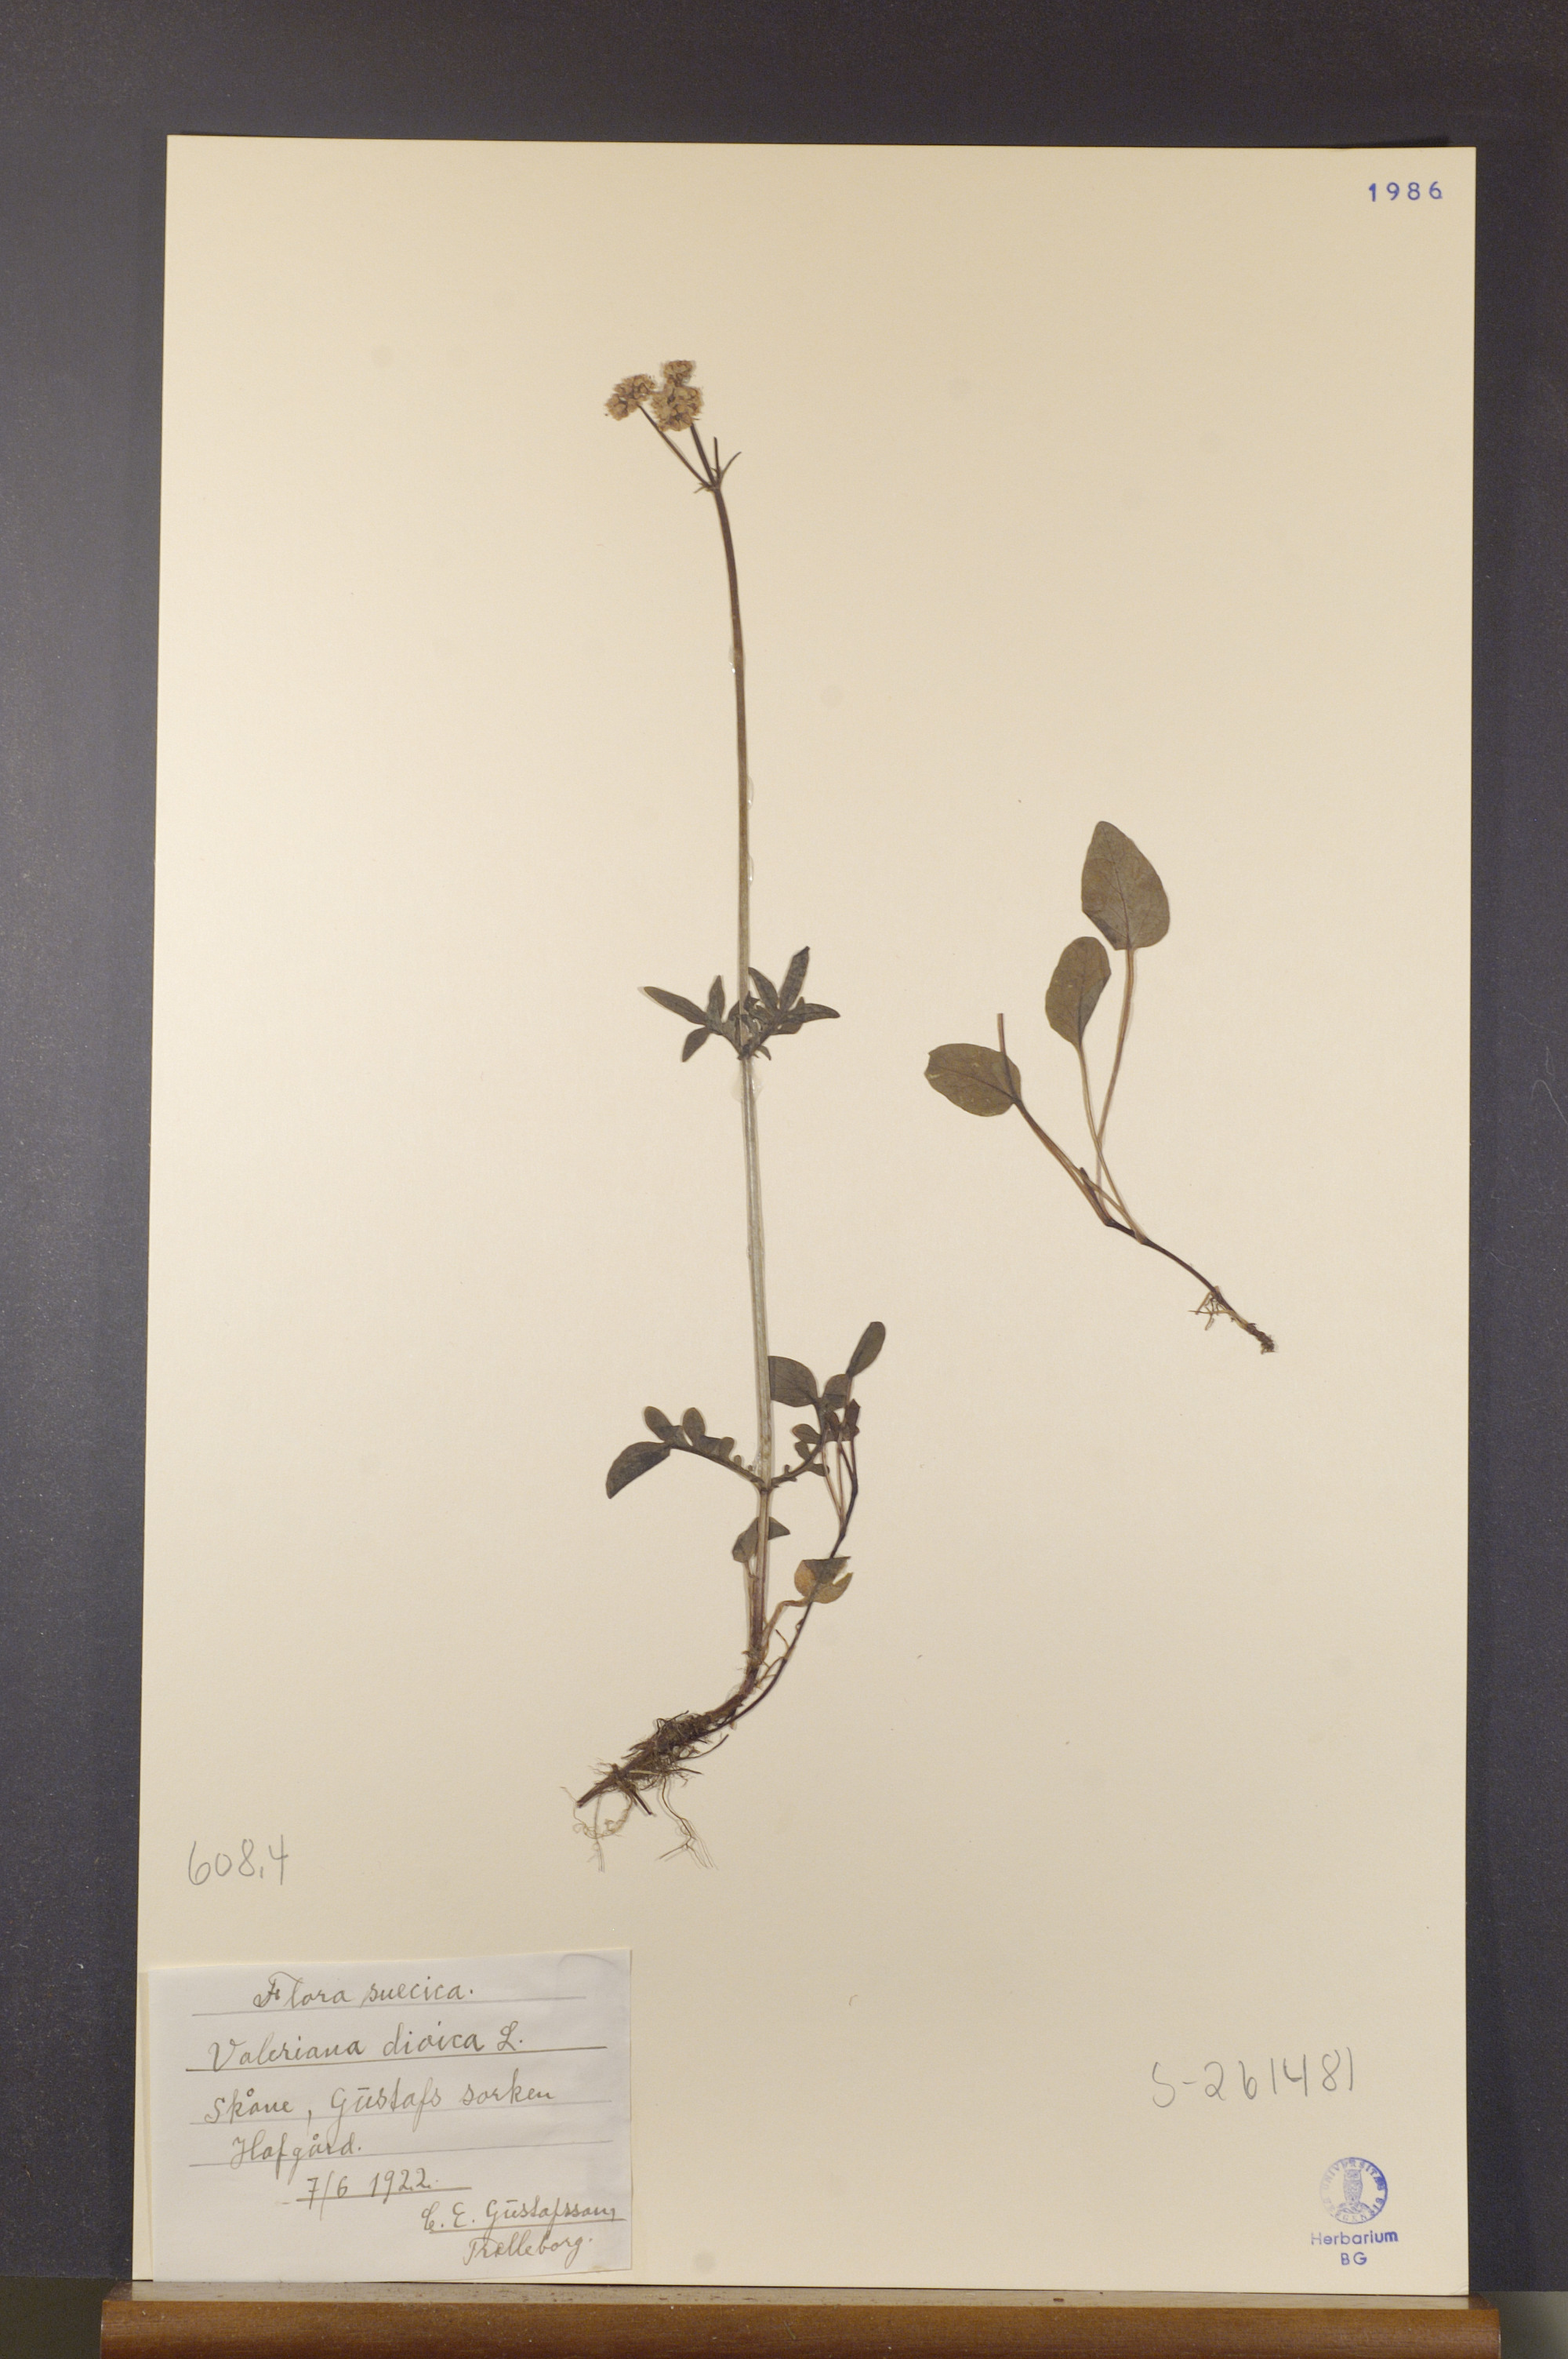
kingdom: Plantae
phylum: Tracheophyta
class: Magnoliopsida
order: Dipsacales
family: Caprifoliaceae
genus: Valeriana
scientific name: Valeriana dioica
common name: Marsh valerian
